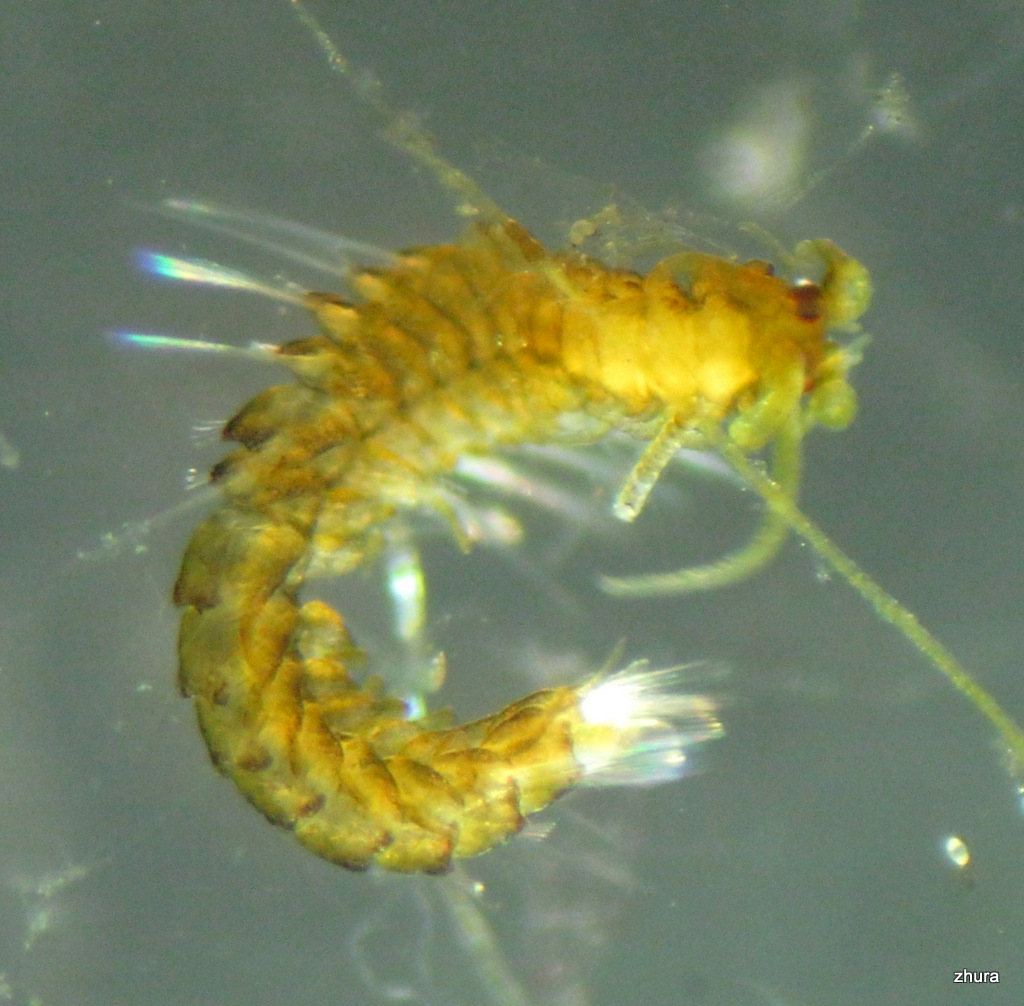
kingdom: Animalia
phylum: Annelida
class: Polychaeta
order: Phyllodocida
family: Syllidae
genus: Proceraea
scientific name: Proceraea prismatica
